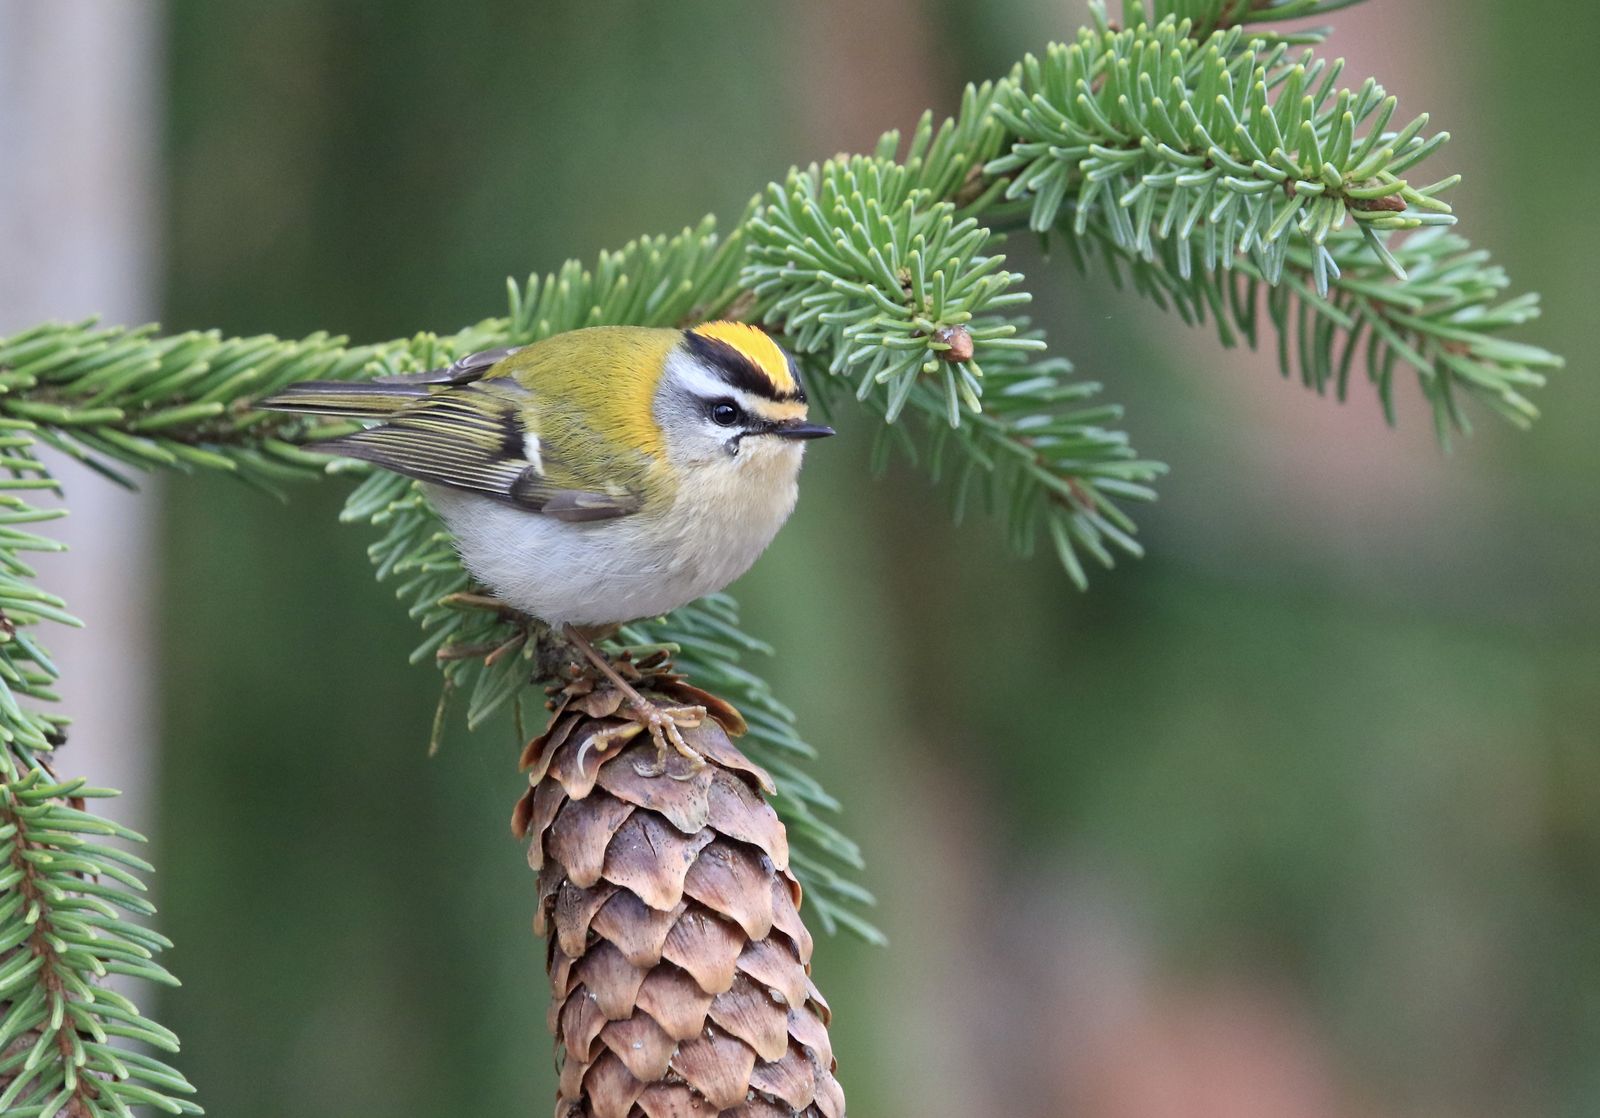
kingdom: Animalia
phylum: Chordata
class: Aves
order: Passeriformes
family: Regulidae
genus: Regulus
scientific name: Regulus ignicapilla
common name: Firecrest
